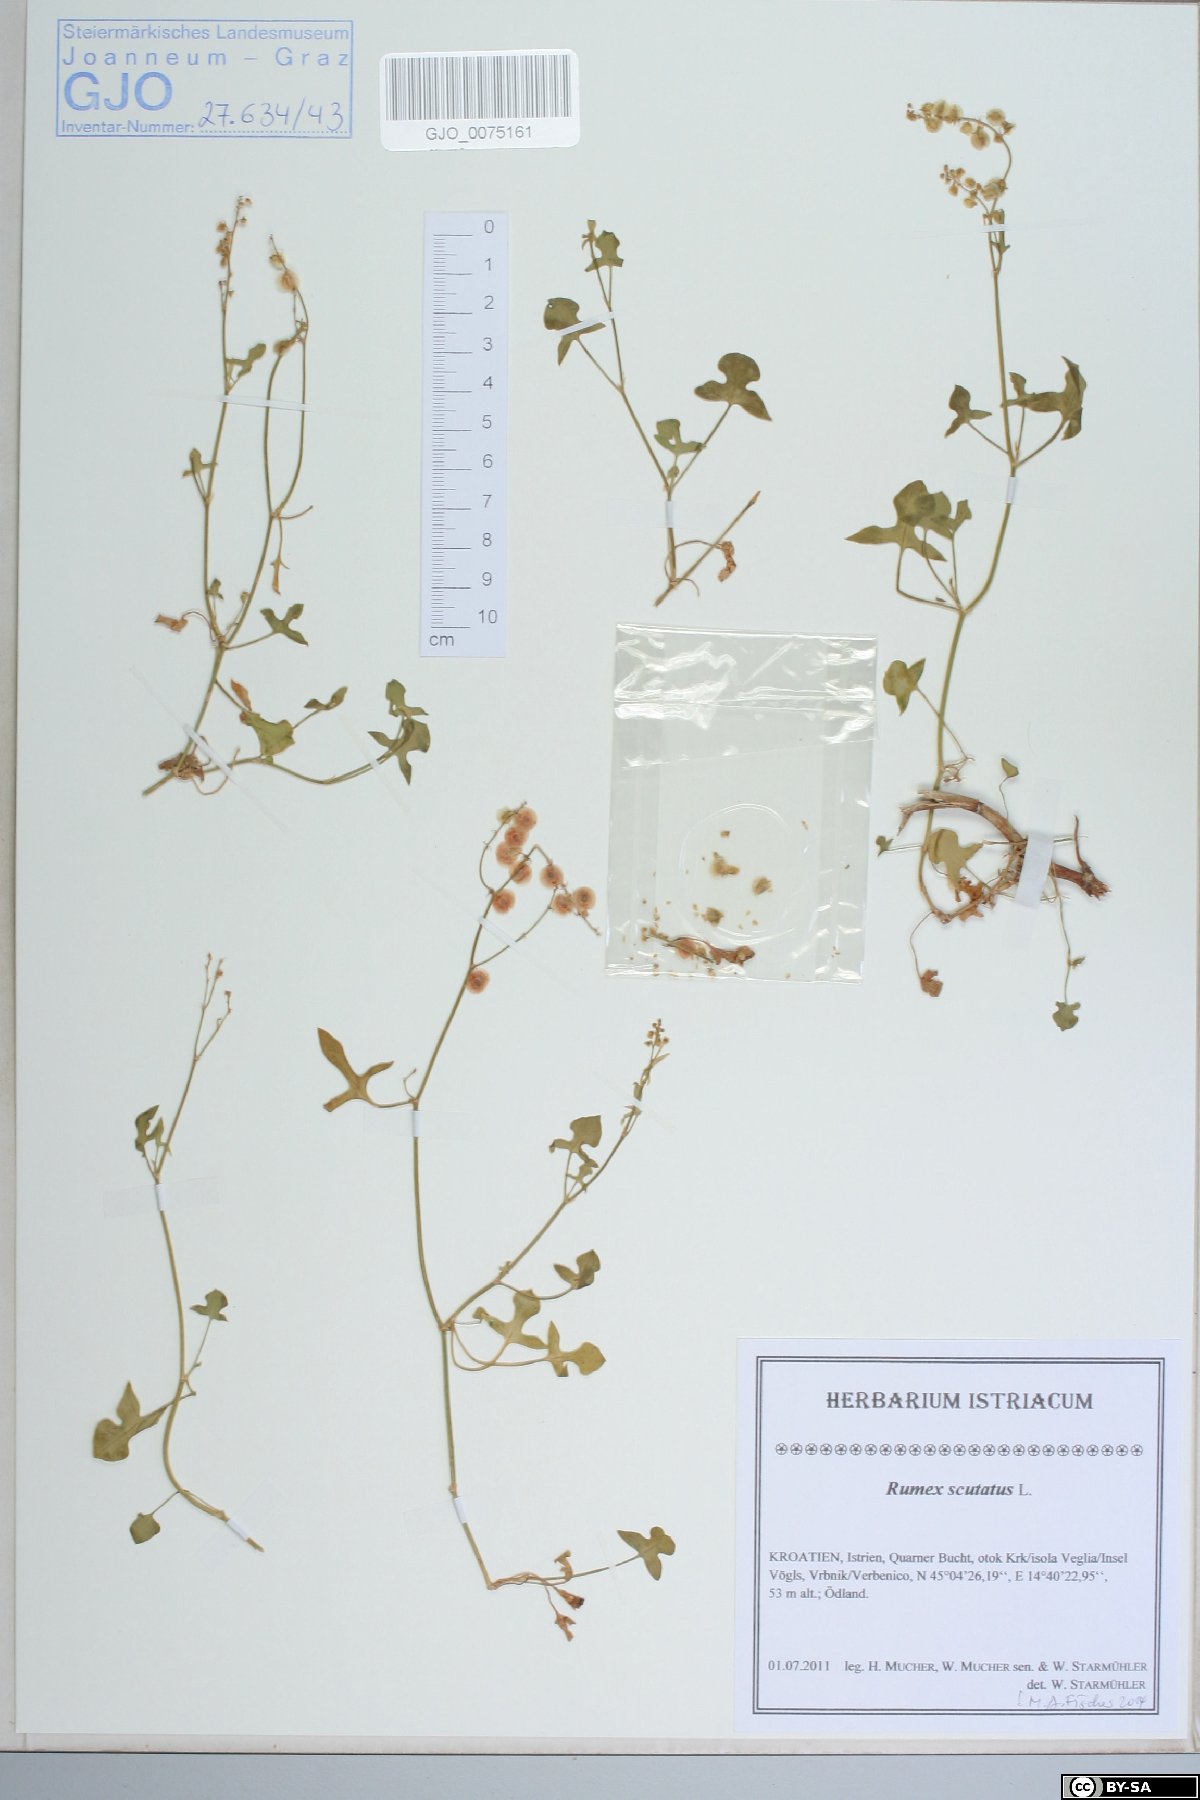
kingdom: Plantae
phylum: Tracheophyta
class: Magnoliopsida
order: Caryophyllales
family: Polygonaceae
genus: Rumex
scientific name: Rumex scutatus
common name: French sorrel
